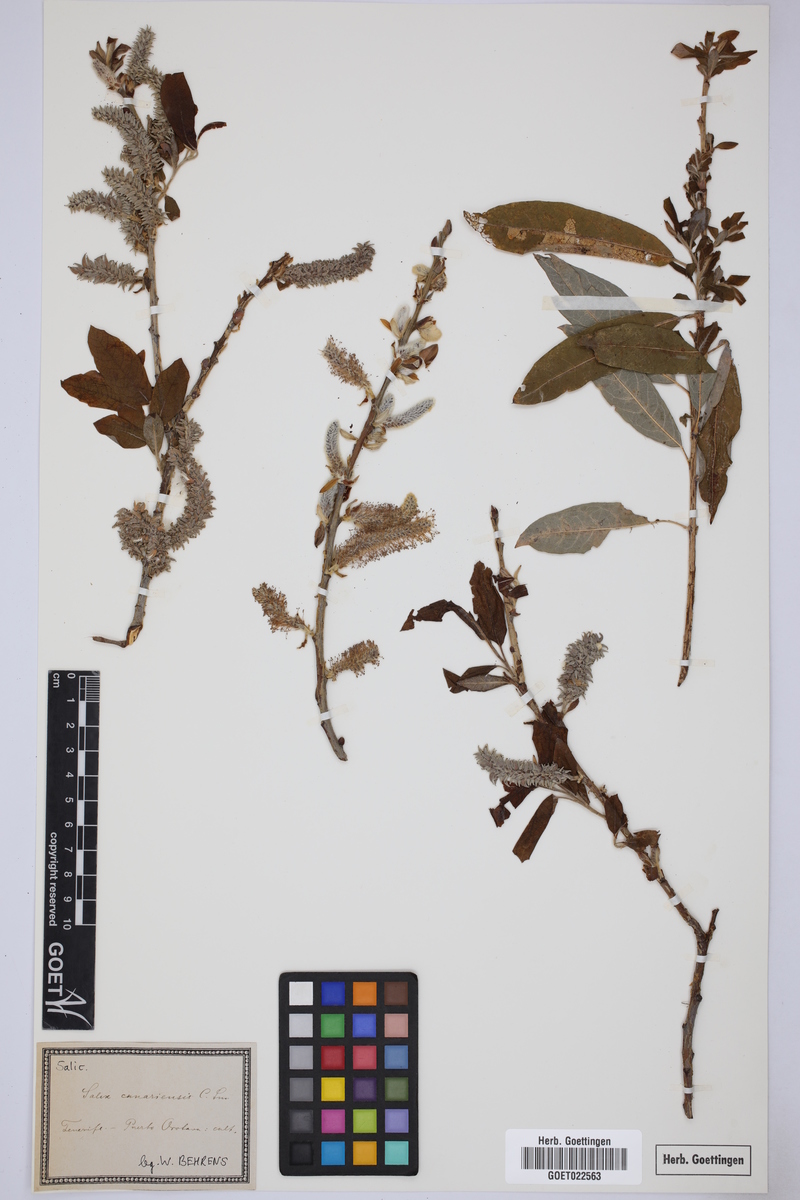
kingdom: Plantae
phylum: Tracheophyta
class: Magnoliopsida
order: Malpighiales
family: Salicaceae
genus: Salix
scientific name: Salix canariensis
